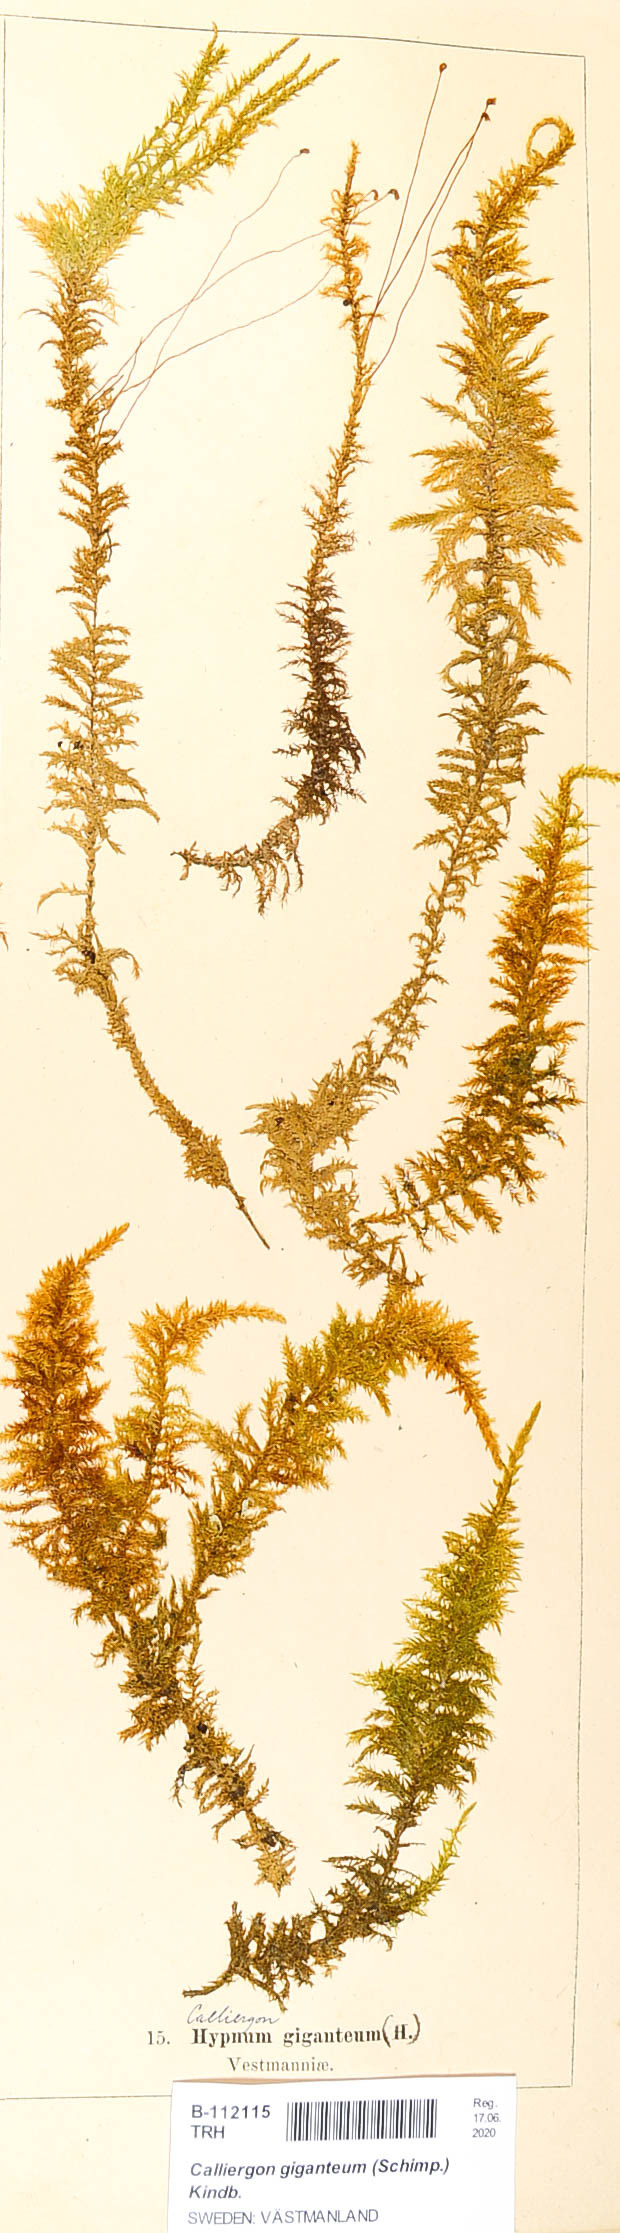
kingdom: Plantae
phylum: Bryophyta
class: Bryopsida
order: Hypnales
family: Calliergonaceae
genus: Calliergon
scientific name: Calliergon giganteum
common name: Giant spear moss
